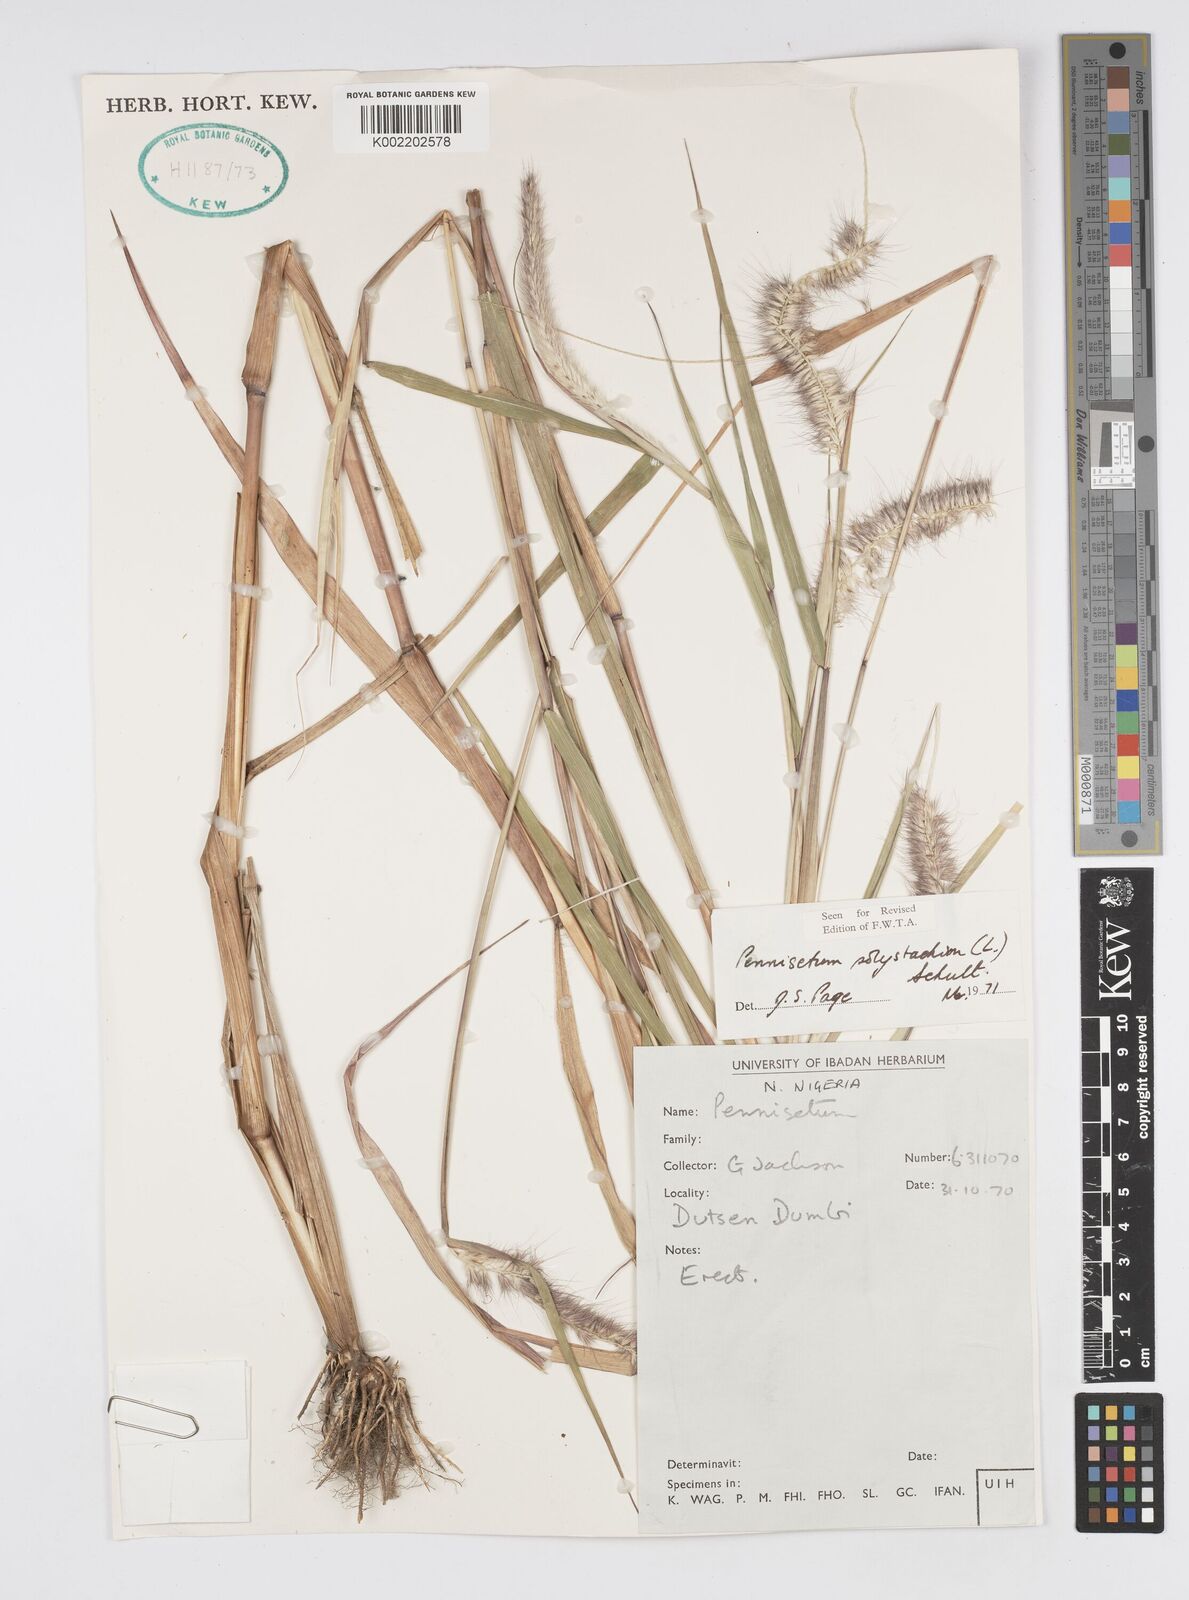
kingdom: Plantae
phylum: Tracheophyta
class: Liliopsida
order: Poales
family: Poaceae
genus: Setaria
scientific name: Setaria parviflora
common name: Knotroot bristle-grass
